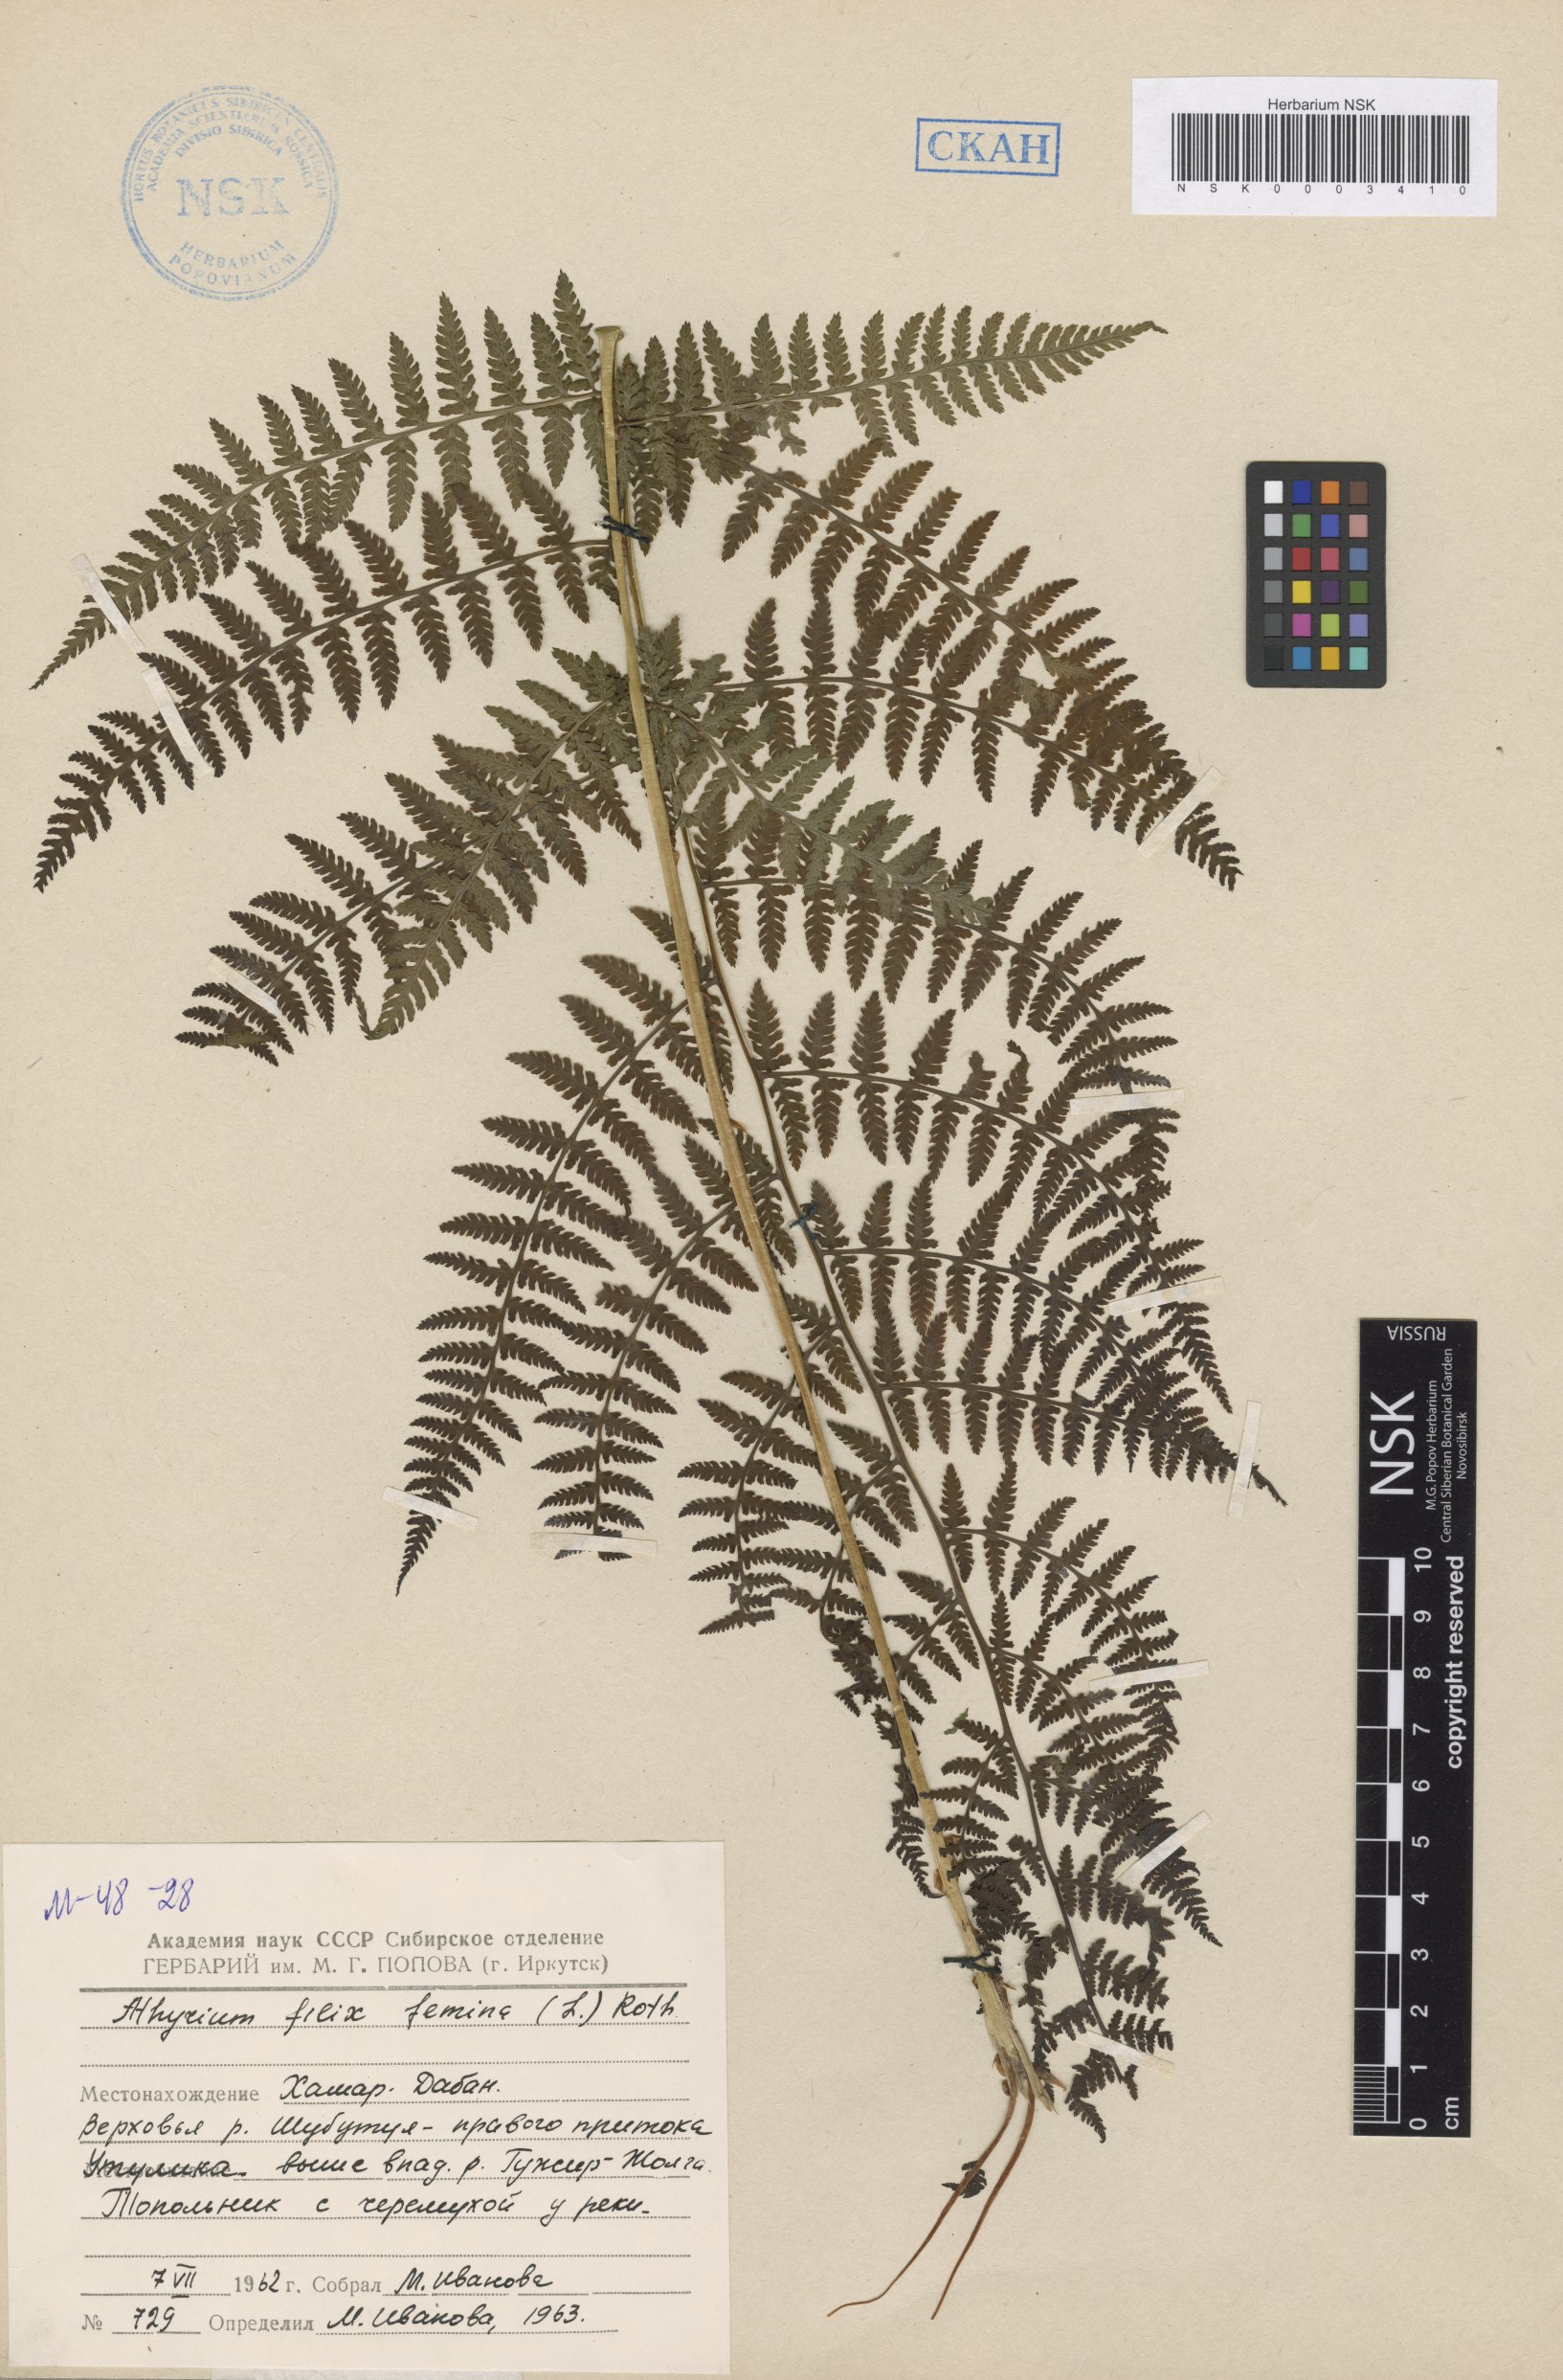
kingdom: Plantae
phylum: Tracheophyta
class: Polypodiopsida
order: Polypodiales
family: Athyriaceae
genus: Athyrium
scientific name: Athyrium filix-femina
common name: Lady fern
